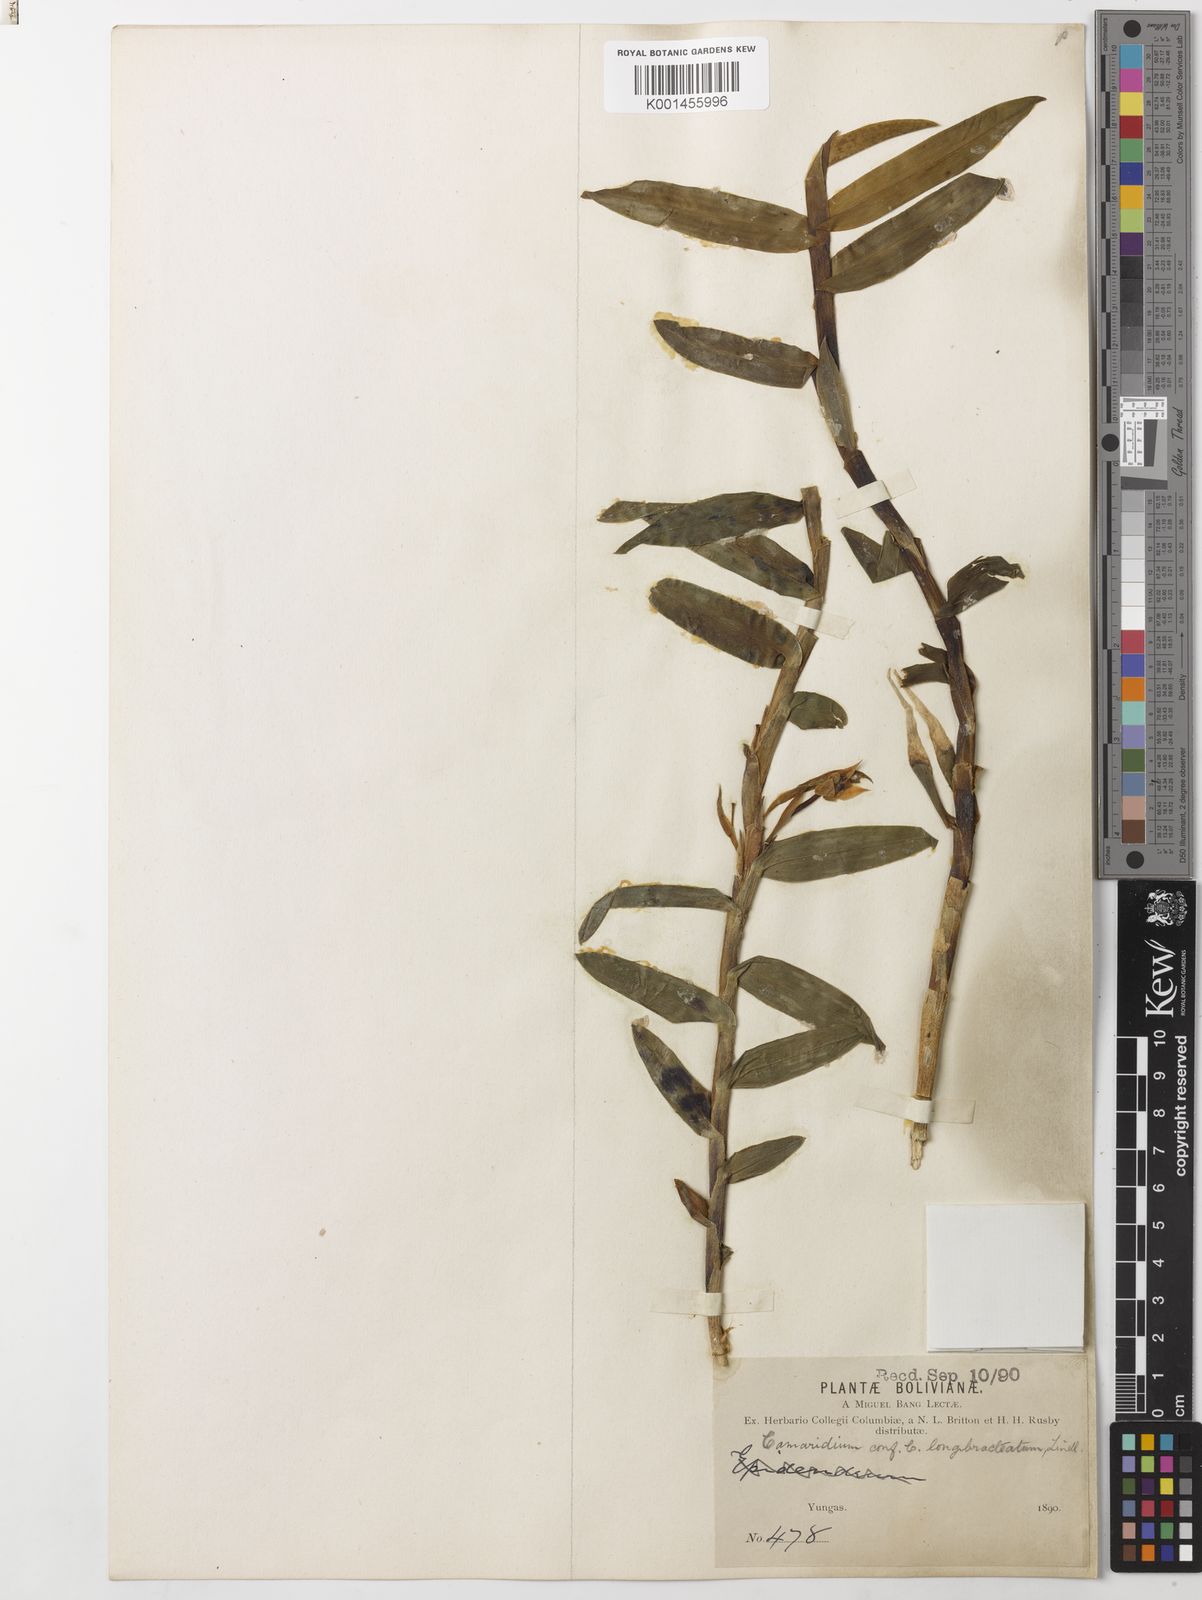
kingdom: Plantae
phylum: Tracheophyta
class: Liliopsida
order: Asparagales
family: Orchidaceae
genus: Maxillaria
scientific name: Maxillaria longibracteata
